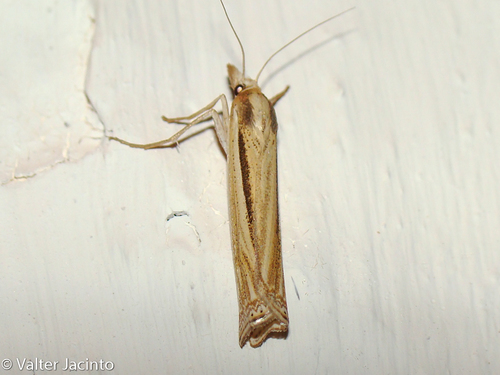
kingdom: Animalia
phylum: Arthropoda
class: Insecta
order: Lepidoptera
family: Crambidae
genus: Ancylolomia
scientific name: Ancylolomia tentaculella
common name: Scarce striped grass-veneer
